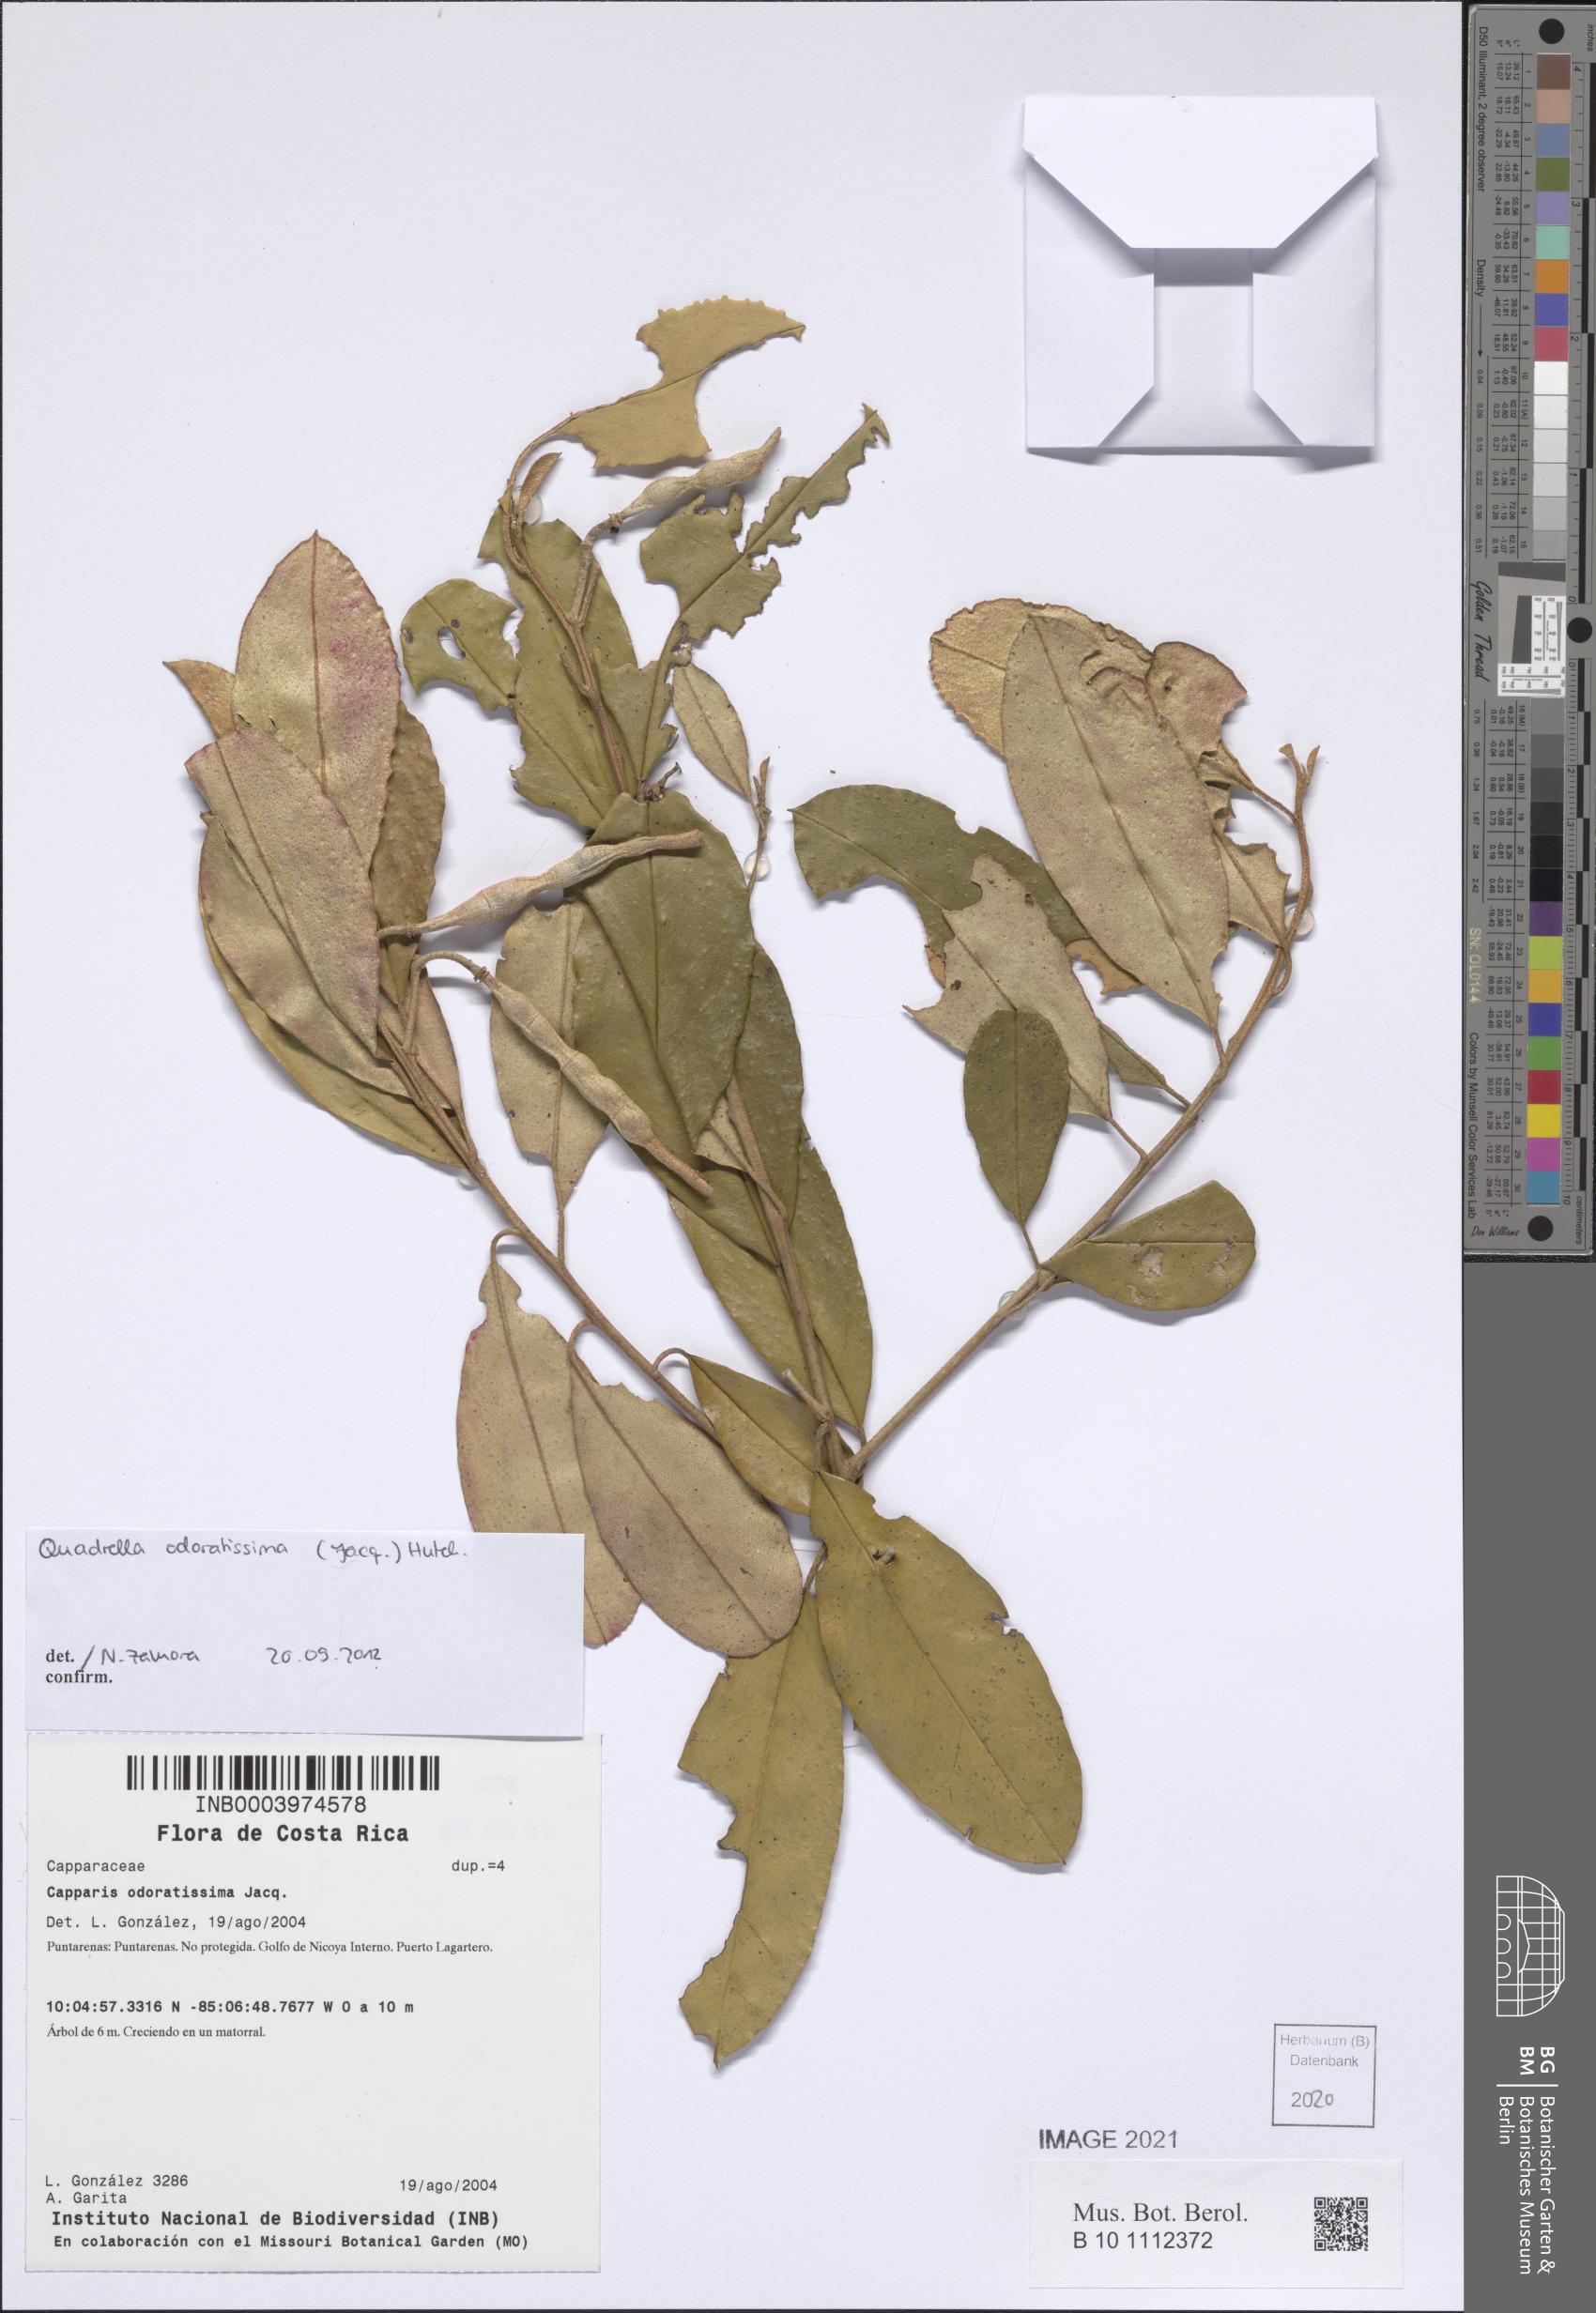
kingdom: Plantae
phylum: Tracheophyta
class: Magnoliopsida
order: Brassicales
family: Capparaceae
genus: Quadrella
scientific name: Quadrella odoratissima
